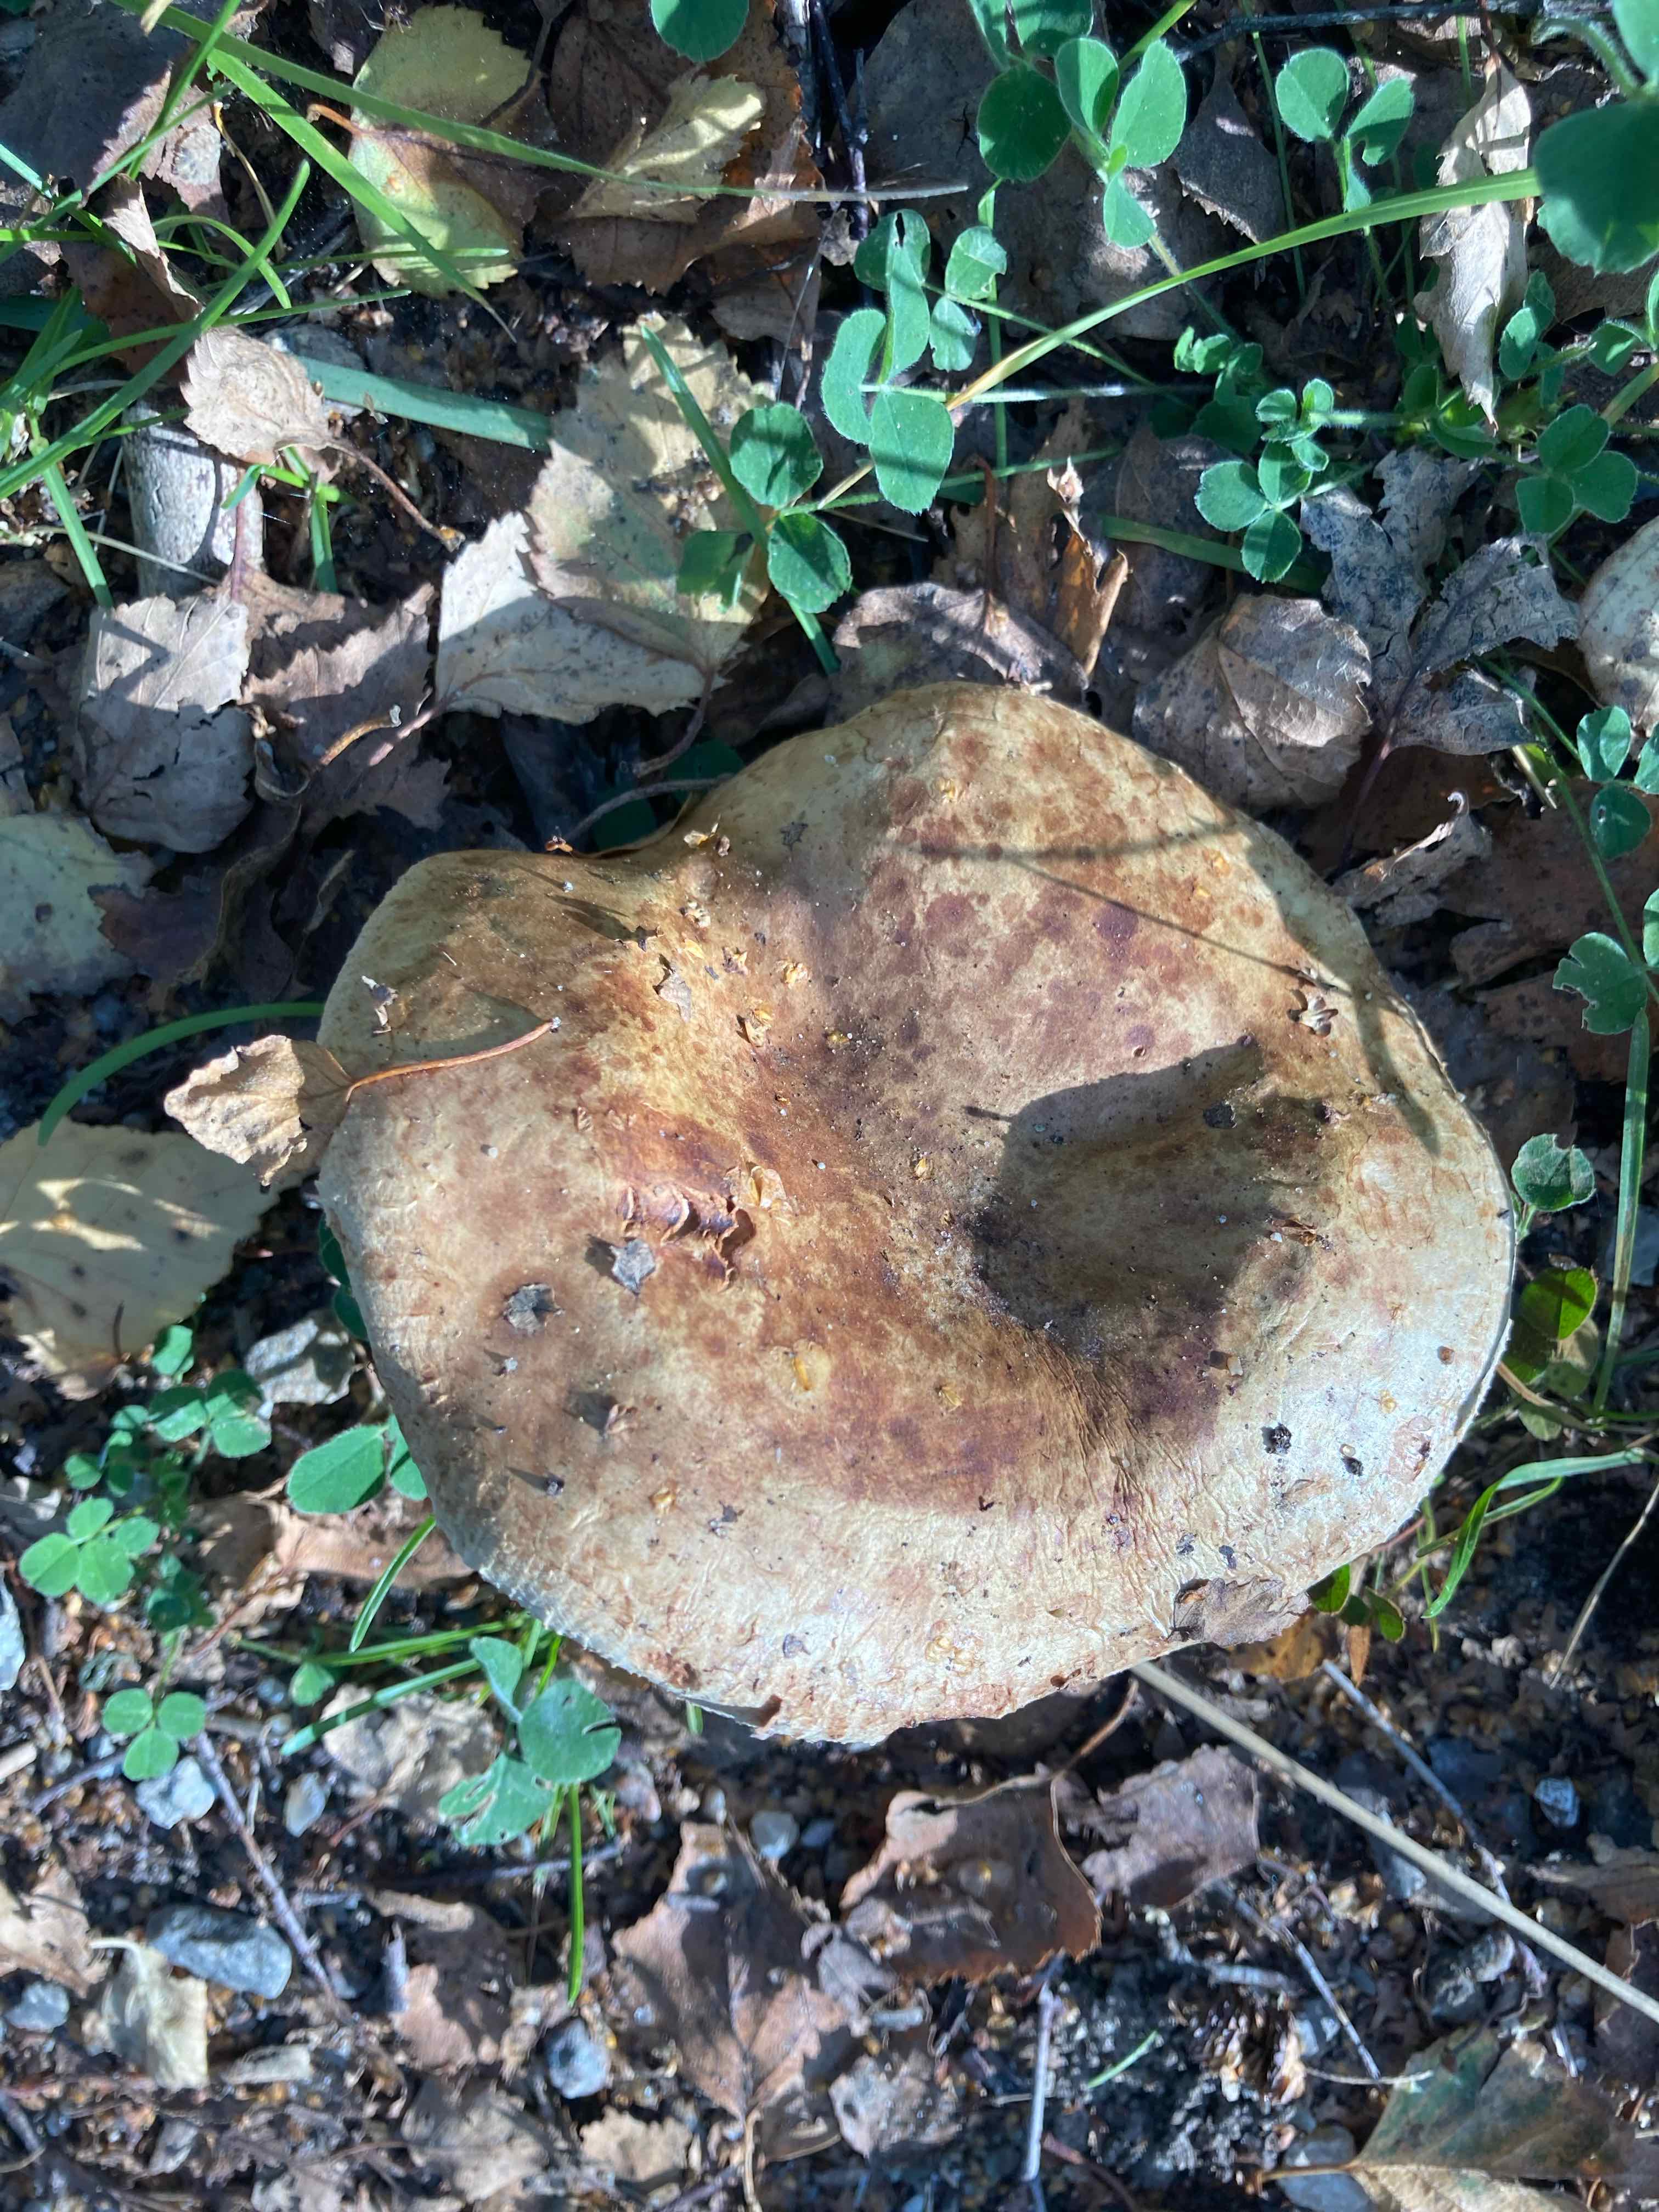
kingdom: Fungi
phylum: Basidiomycota
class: Agaricomycetes
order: Boletales
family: Paxillaceae
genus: Paxillus
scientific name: Paxillus involutus
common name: almindelig netbladhat
